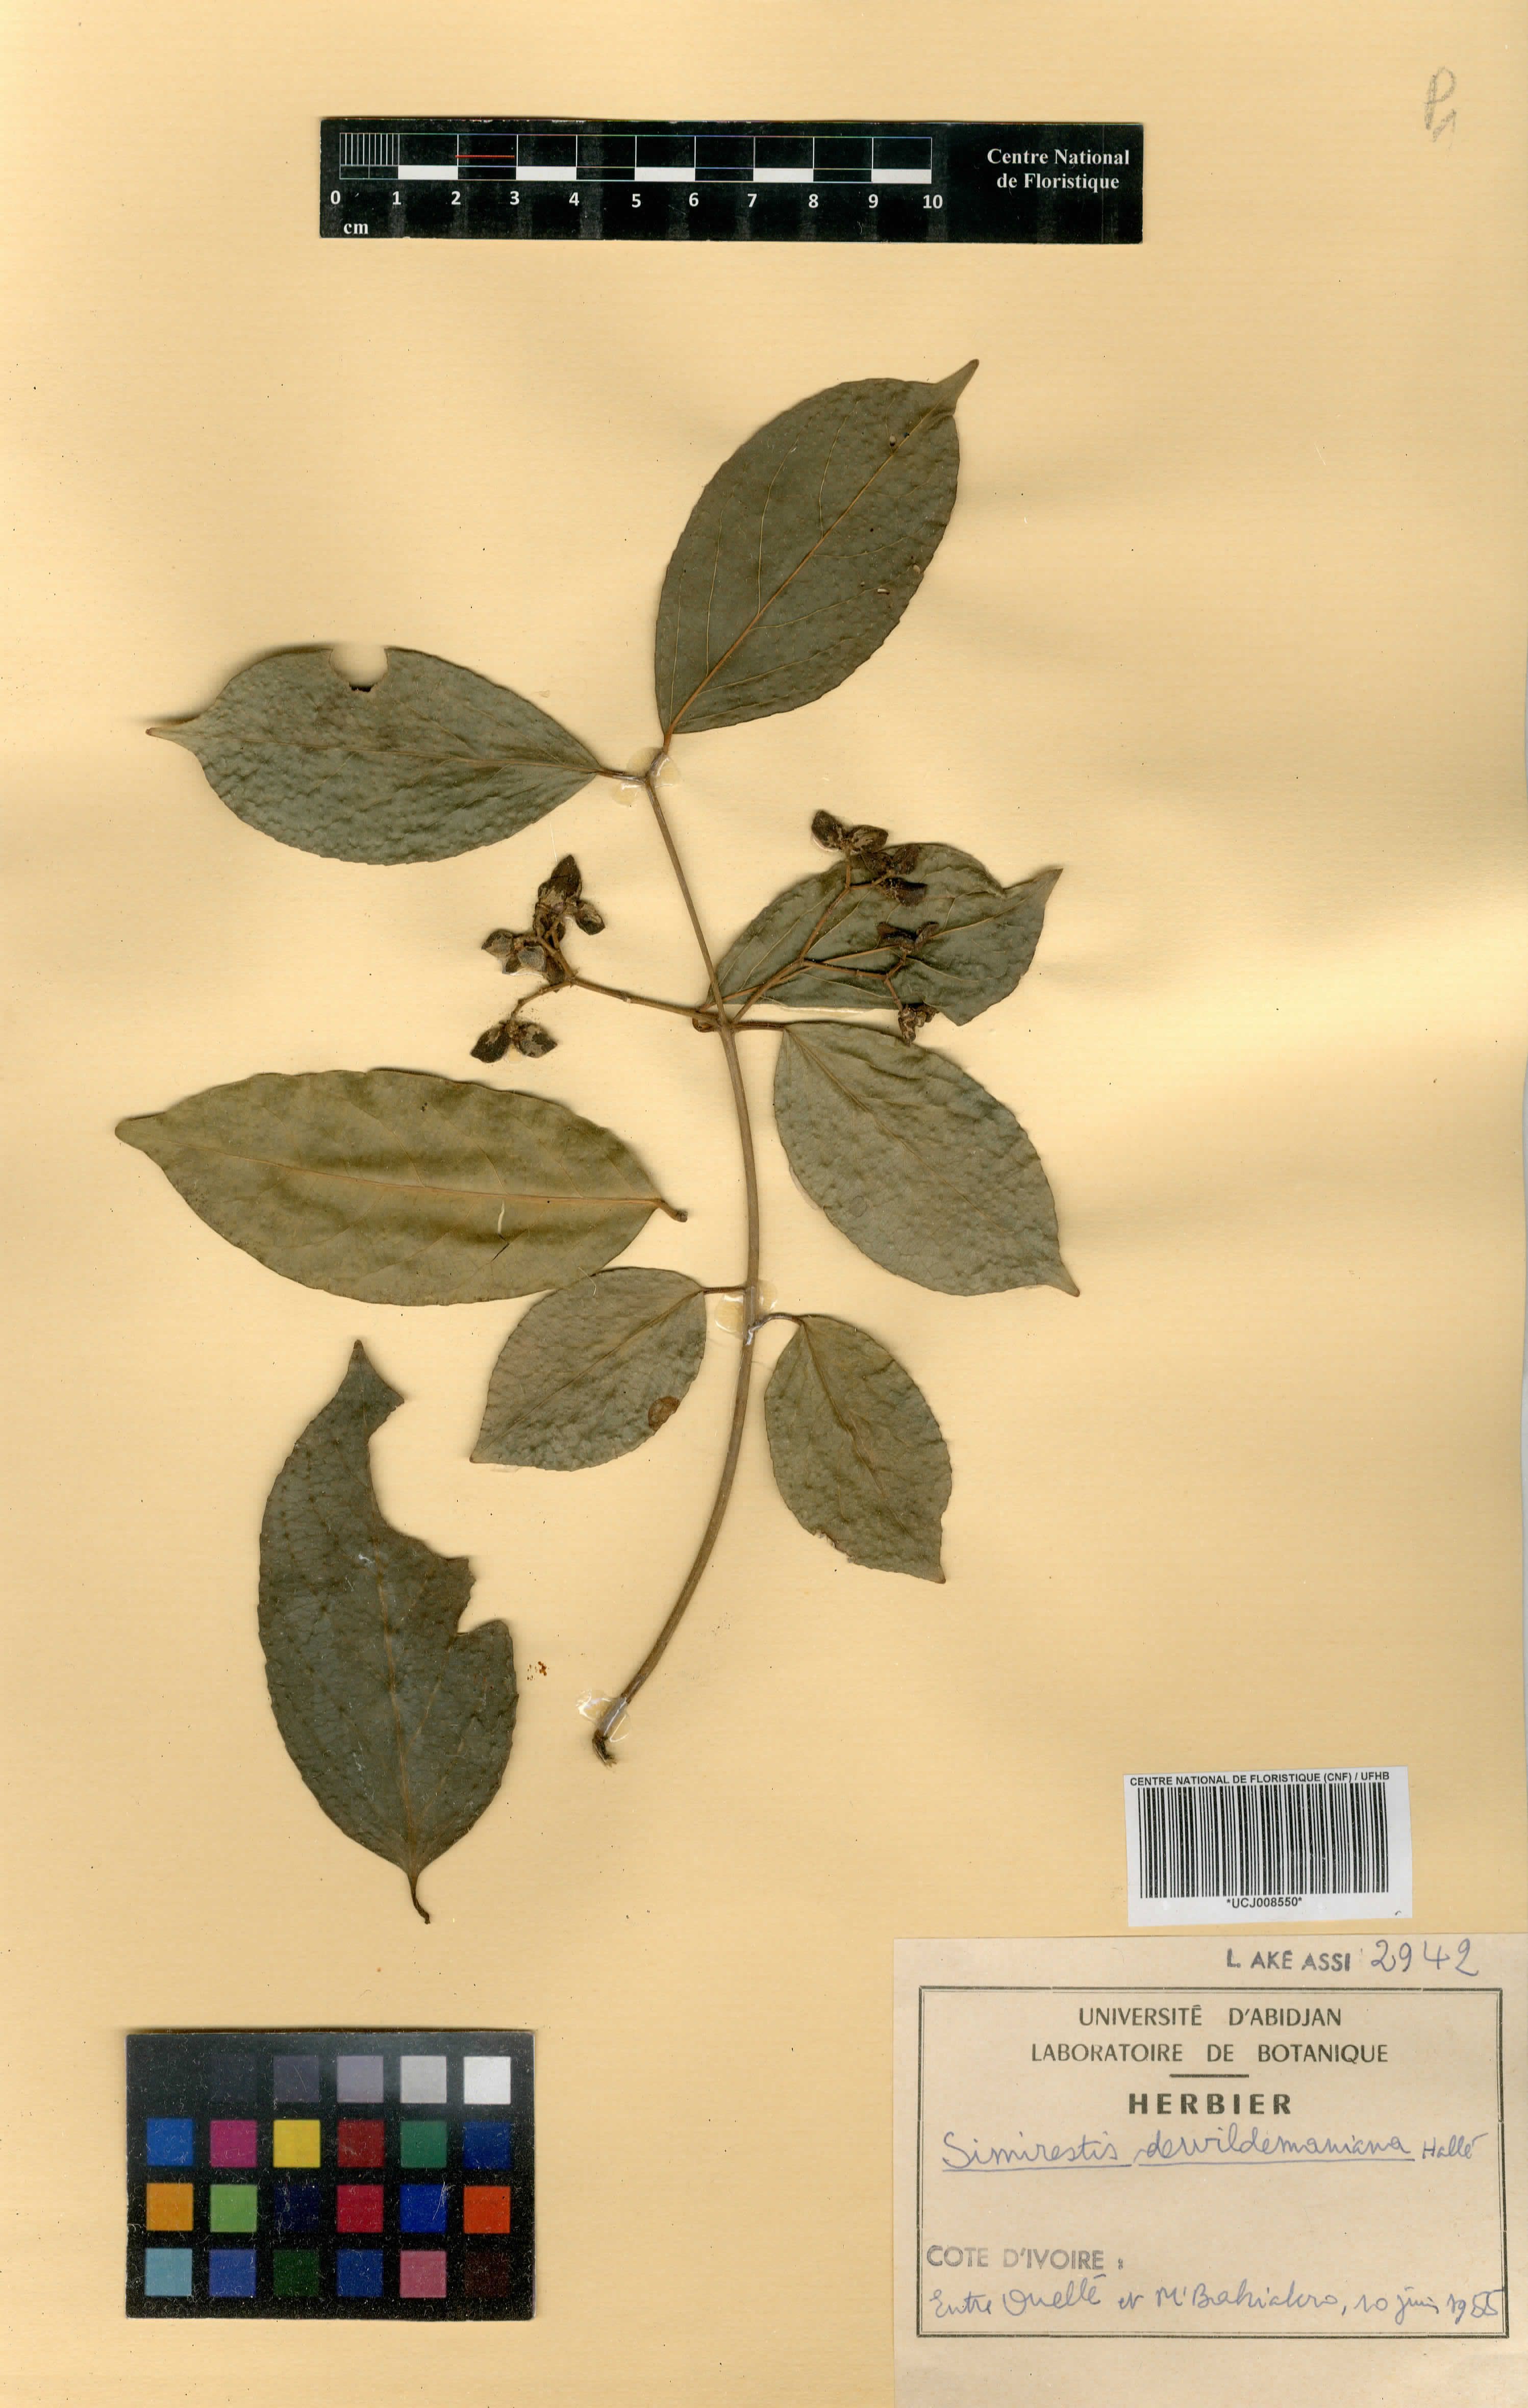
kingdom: Plantae
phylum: Tracheophyta
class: Magnoliopsida
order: Celastrales
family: Celastraceae
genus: Pristimera
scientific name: Pristimera dewildemaniana
